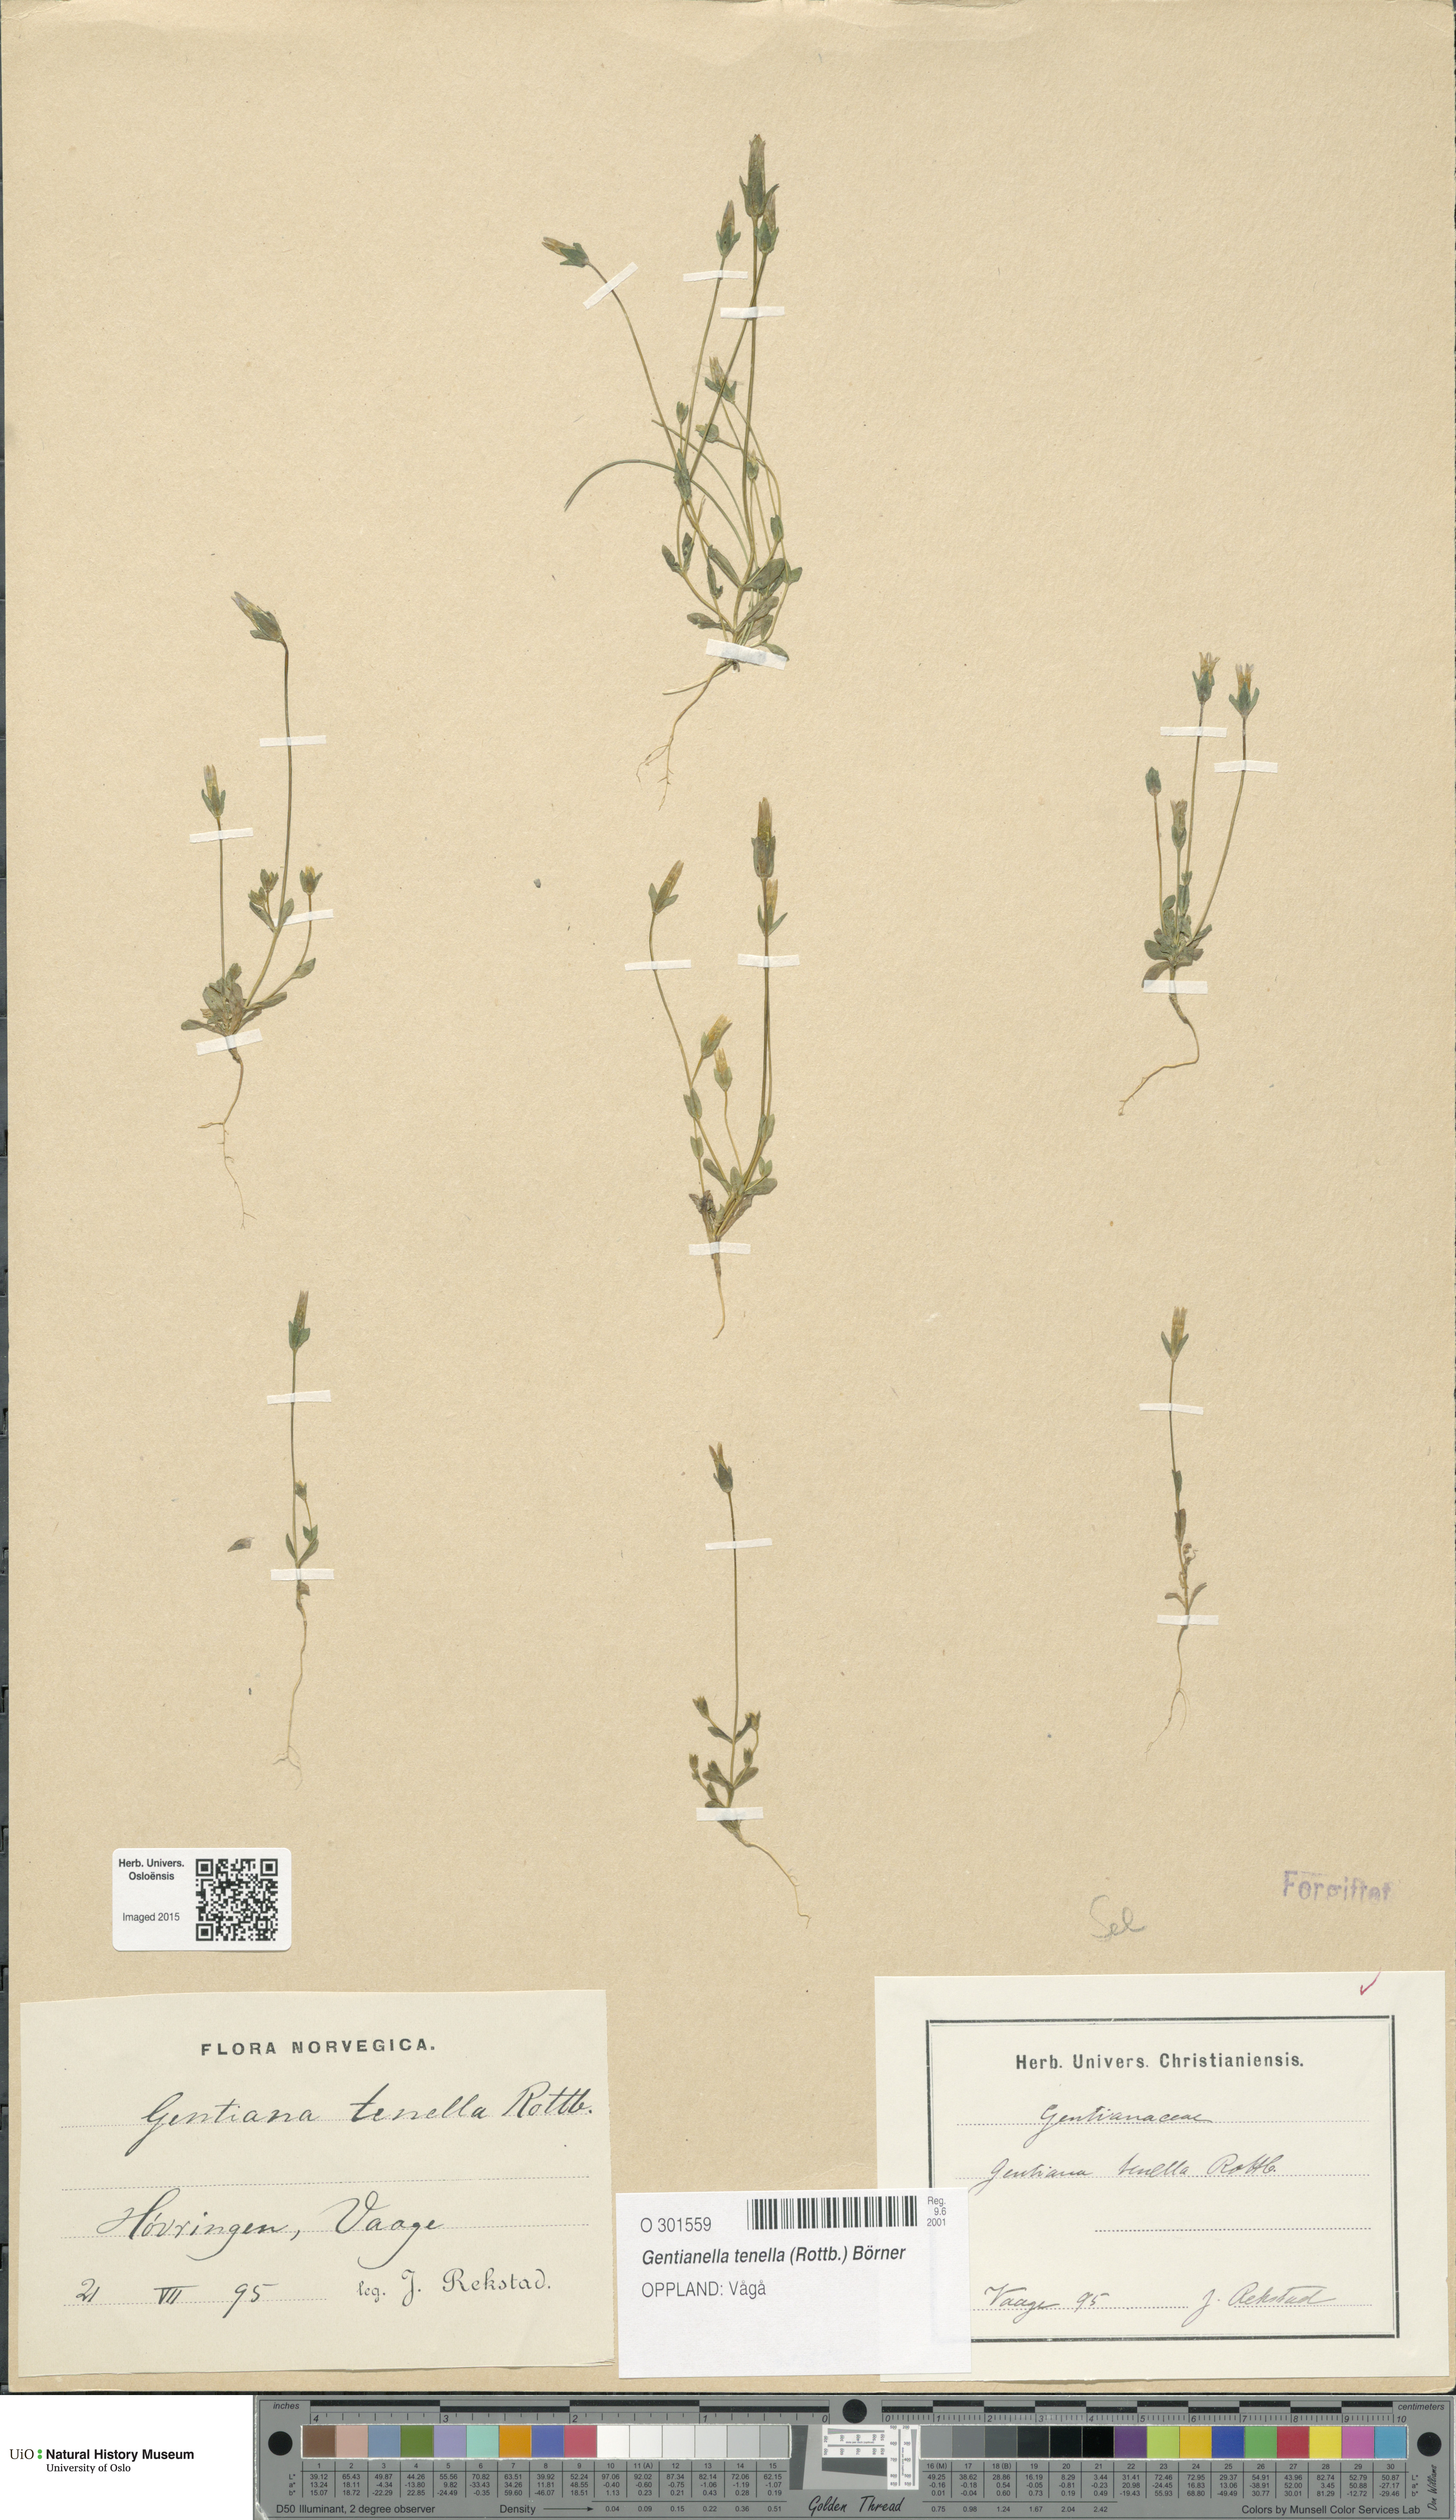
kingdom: Plantae
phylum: Tracheophyta
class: Magnoliopsida
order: Gentianales
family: Gentianaceae
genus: Comastoma
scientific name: Comastoma tenellum
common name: Dane's dwarf gentian
